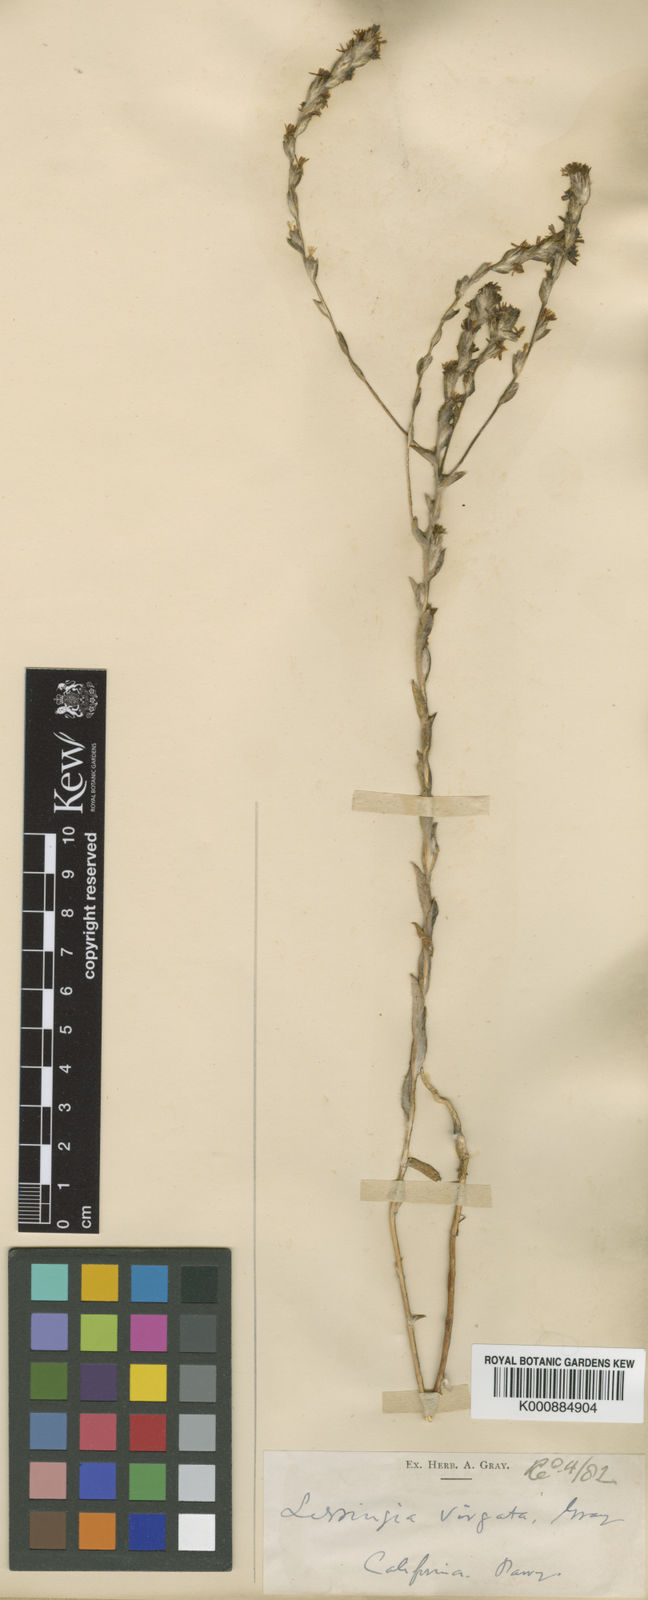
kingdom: Plantae
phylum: Tracheophyta
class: Magnoliopsida
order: Asterales
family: Asteraceae
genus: Lessingia
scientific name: Lessingia
